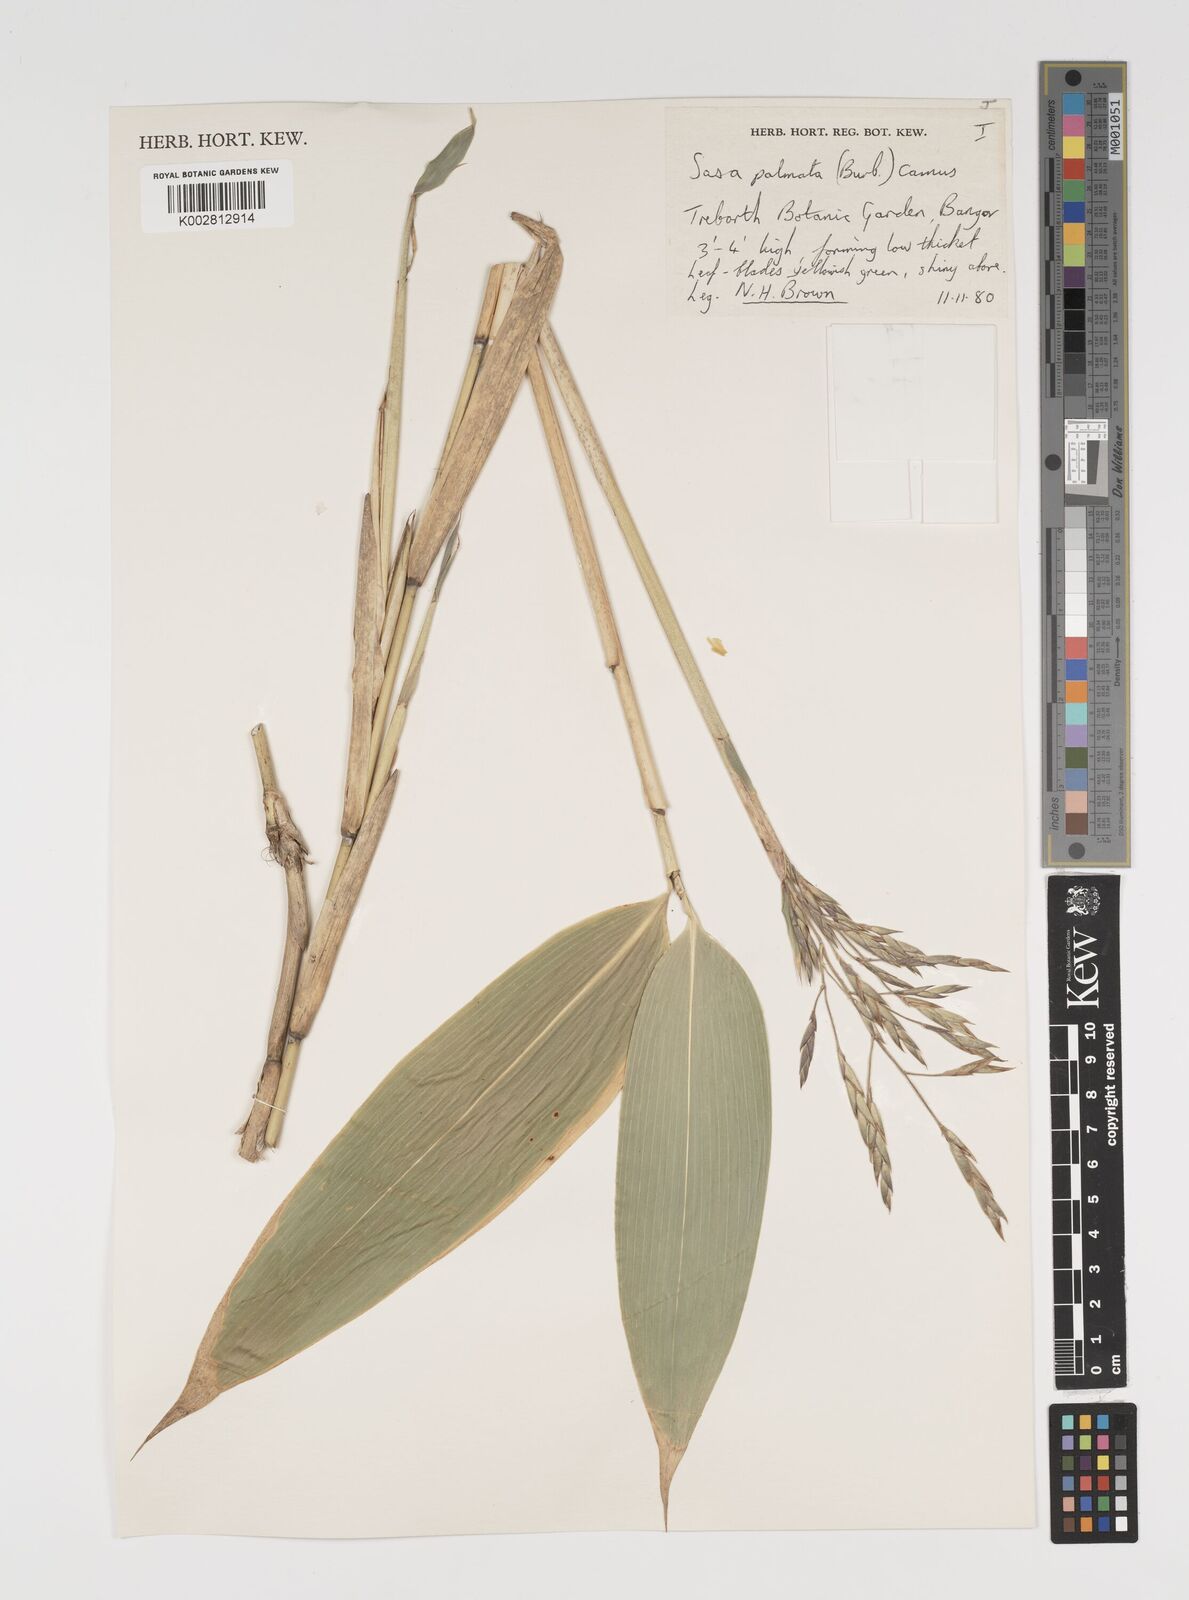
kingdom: Plantae
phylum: Tracheophyta
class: Liliopsida
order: Poales
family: Poaceae
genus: Sasa
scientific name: Sasa palmata
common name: Broad-leaved bamboo
